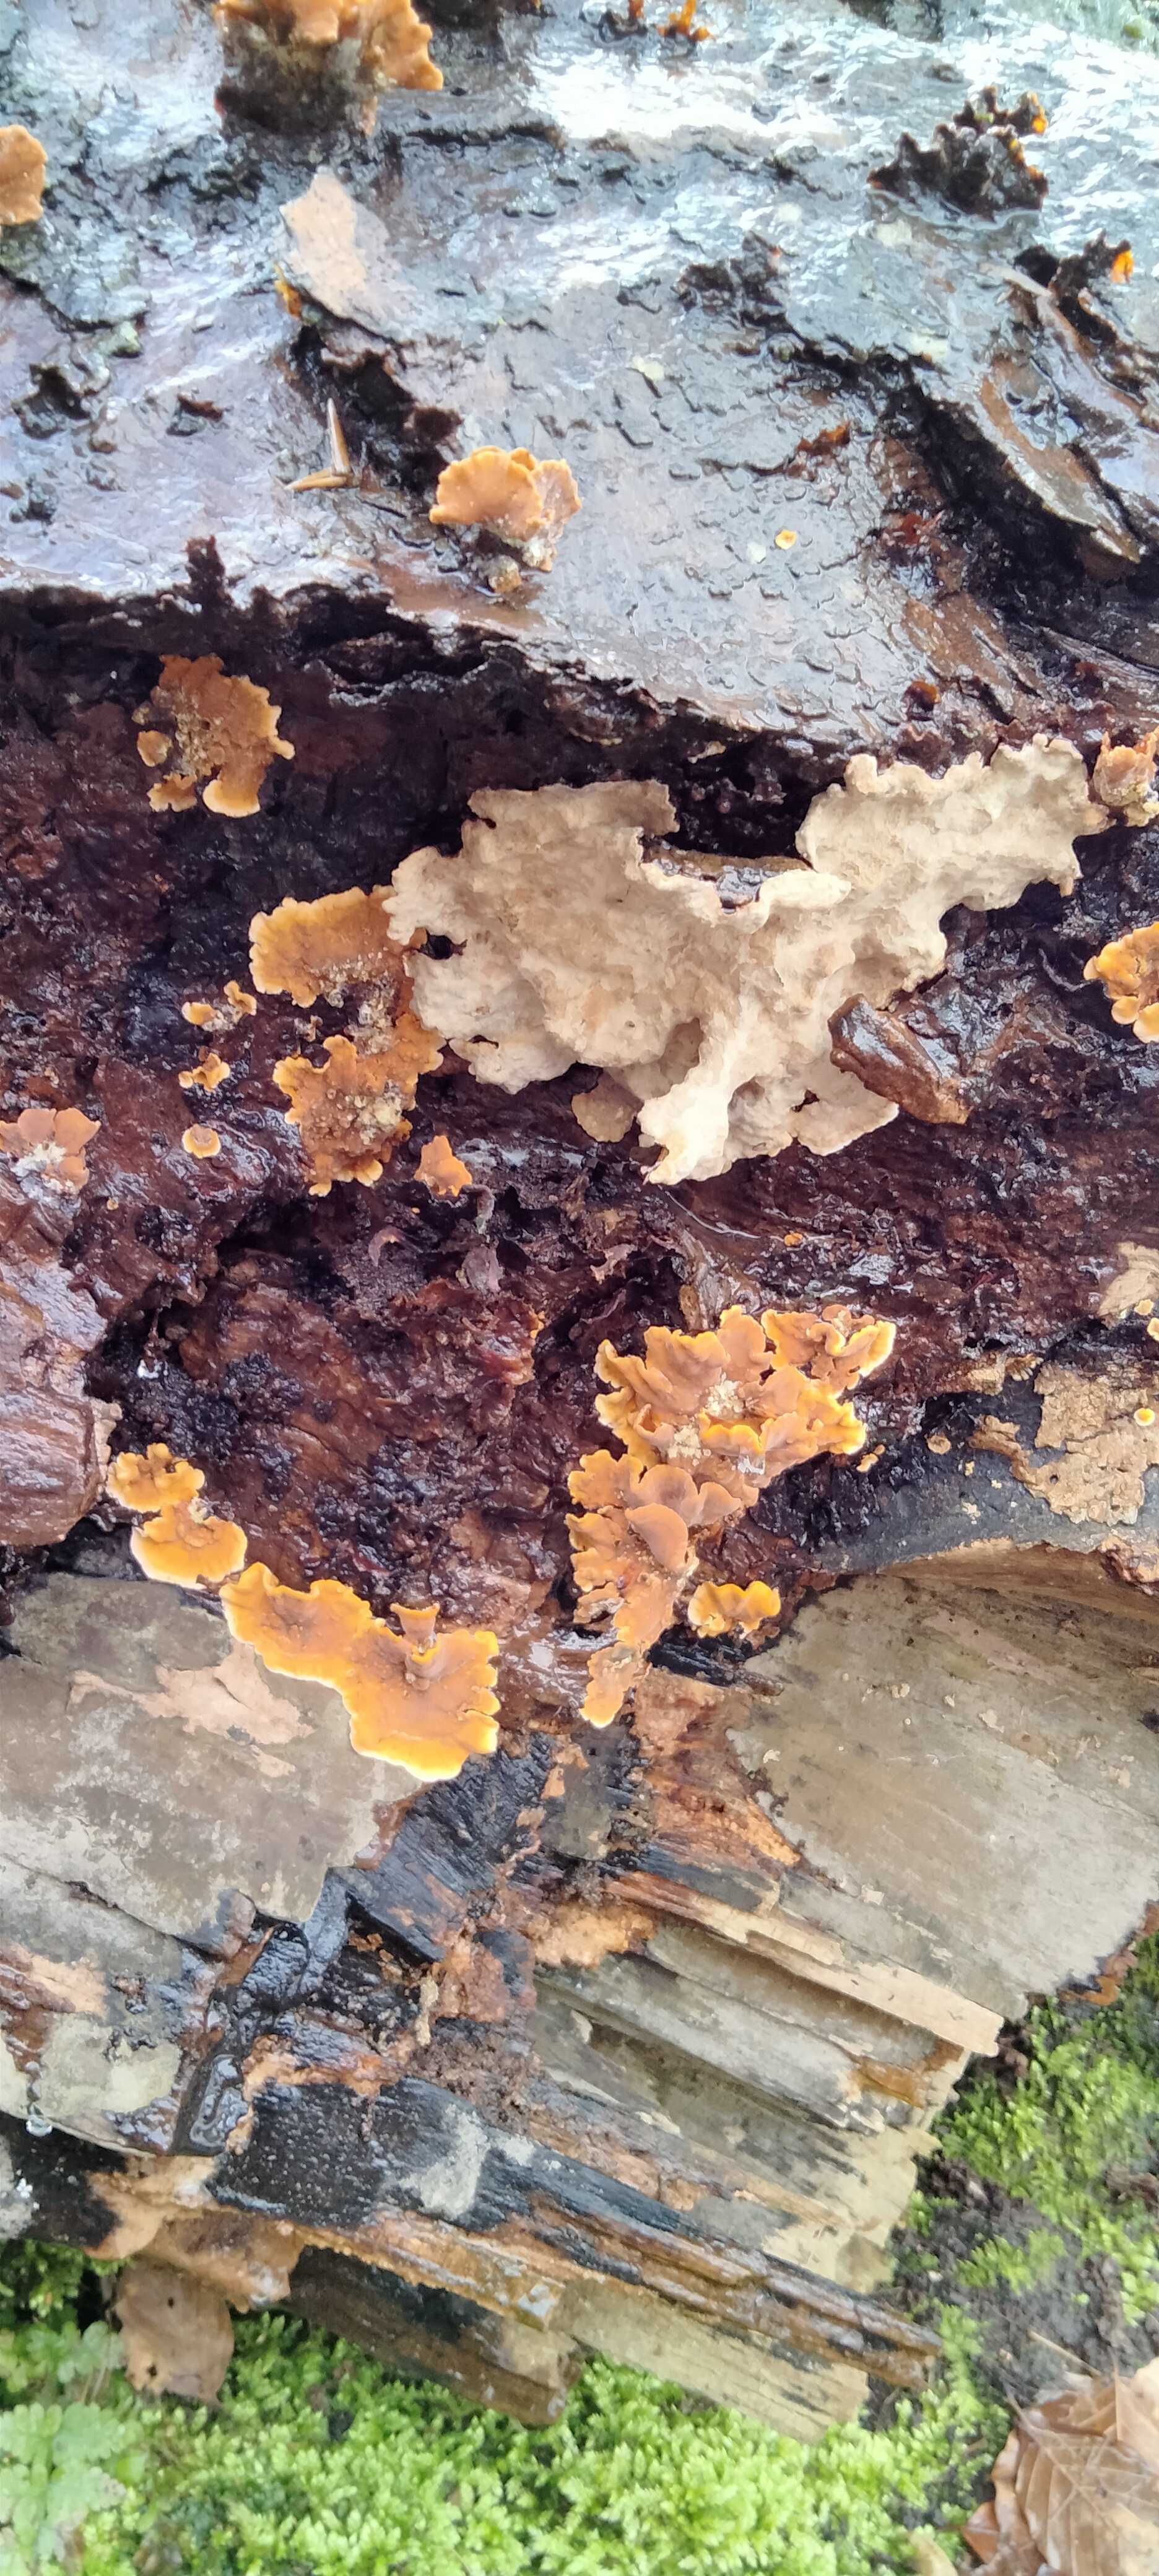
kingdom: Fungi
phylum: Basidiomycota
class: Agaricomycetes
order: Russulales
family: Stereaceae
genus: Stereum
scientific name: Stereum
